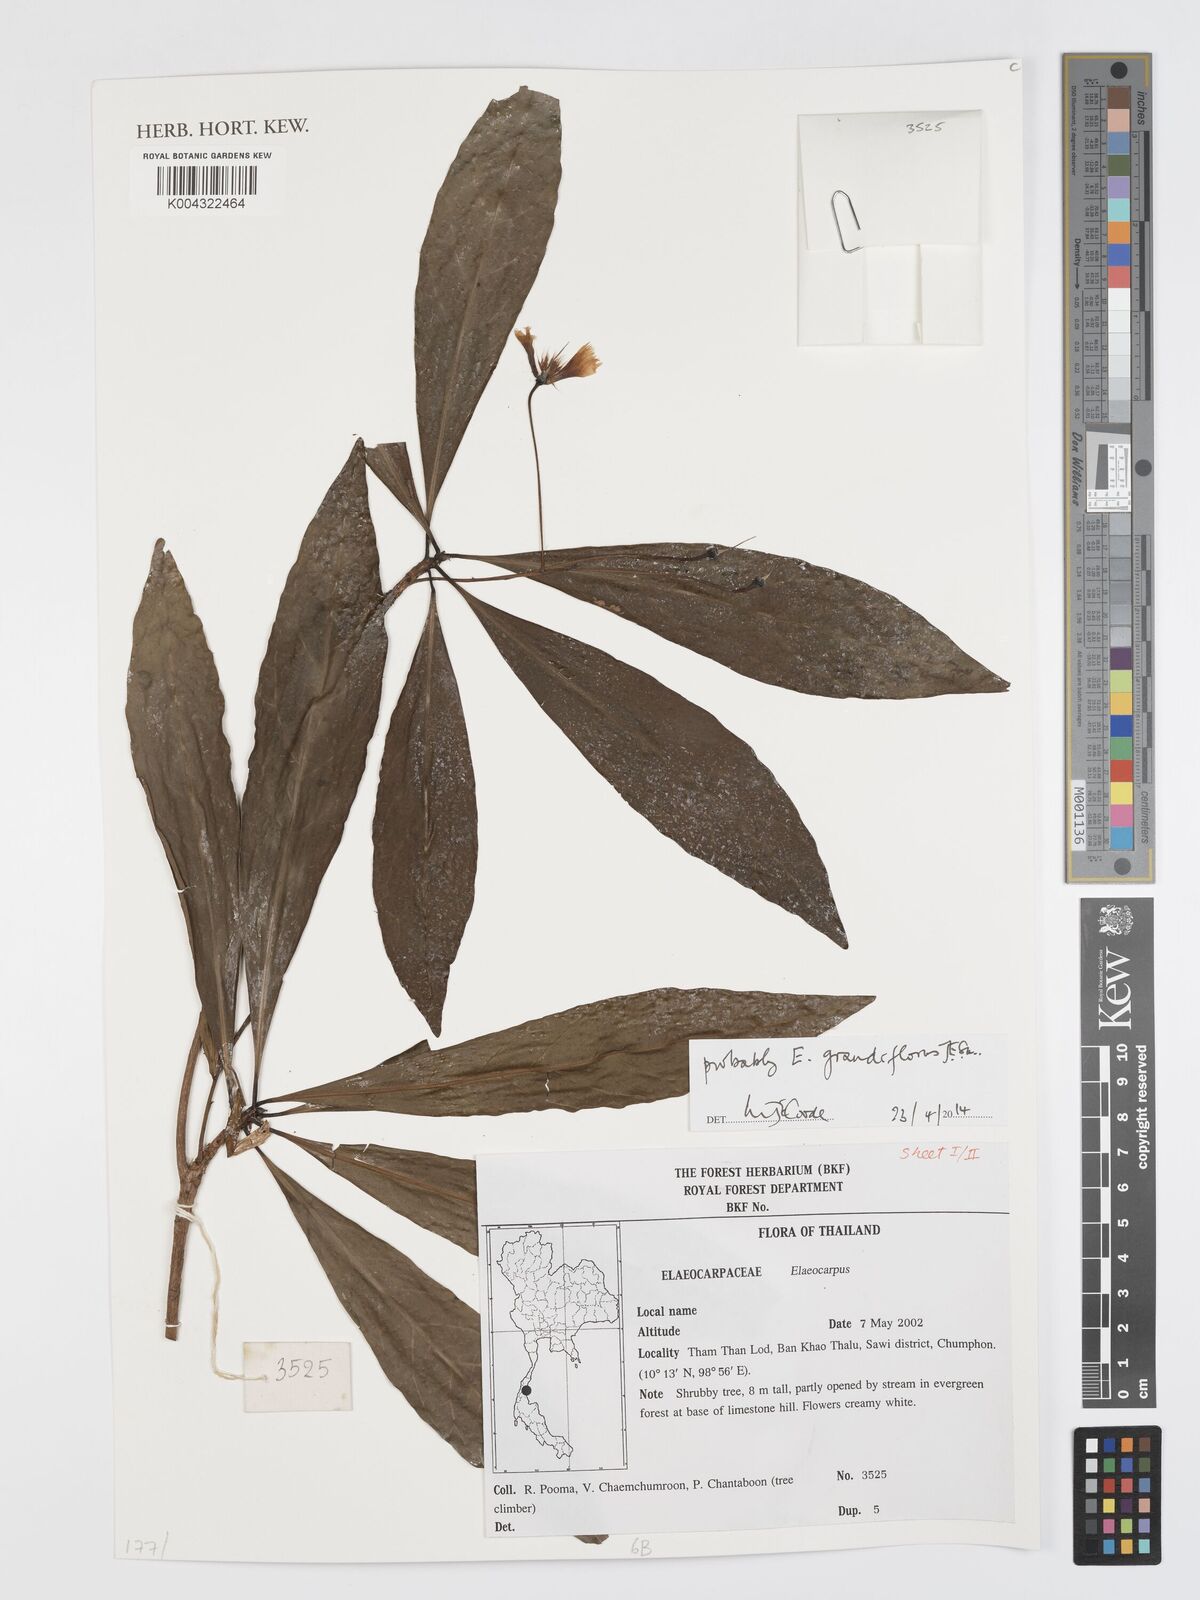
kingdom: Plantae
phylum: Tracheophyta
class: Magnoliopsida
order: Oxalidales
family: Elaeocarpaceae
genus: Elaeocarpus
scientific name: Elaeocarpus grandiflorus
